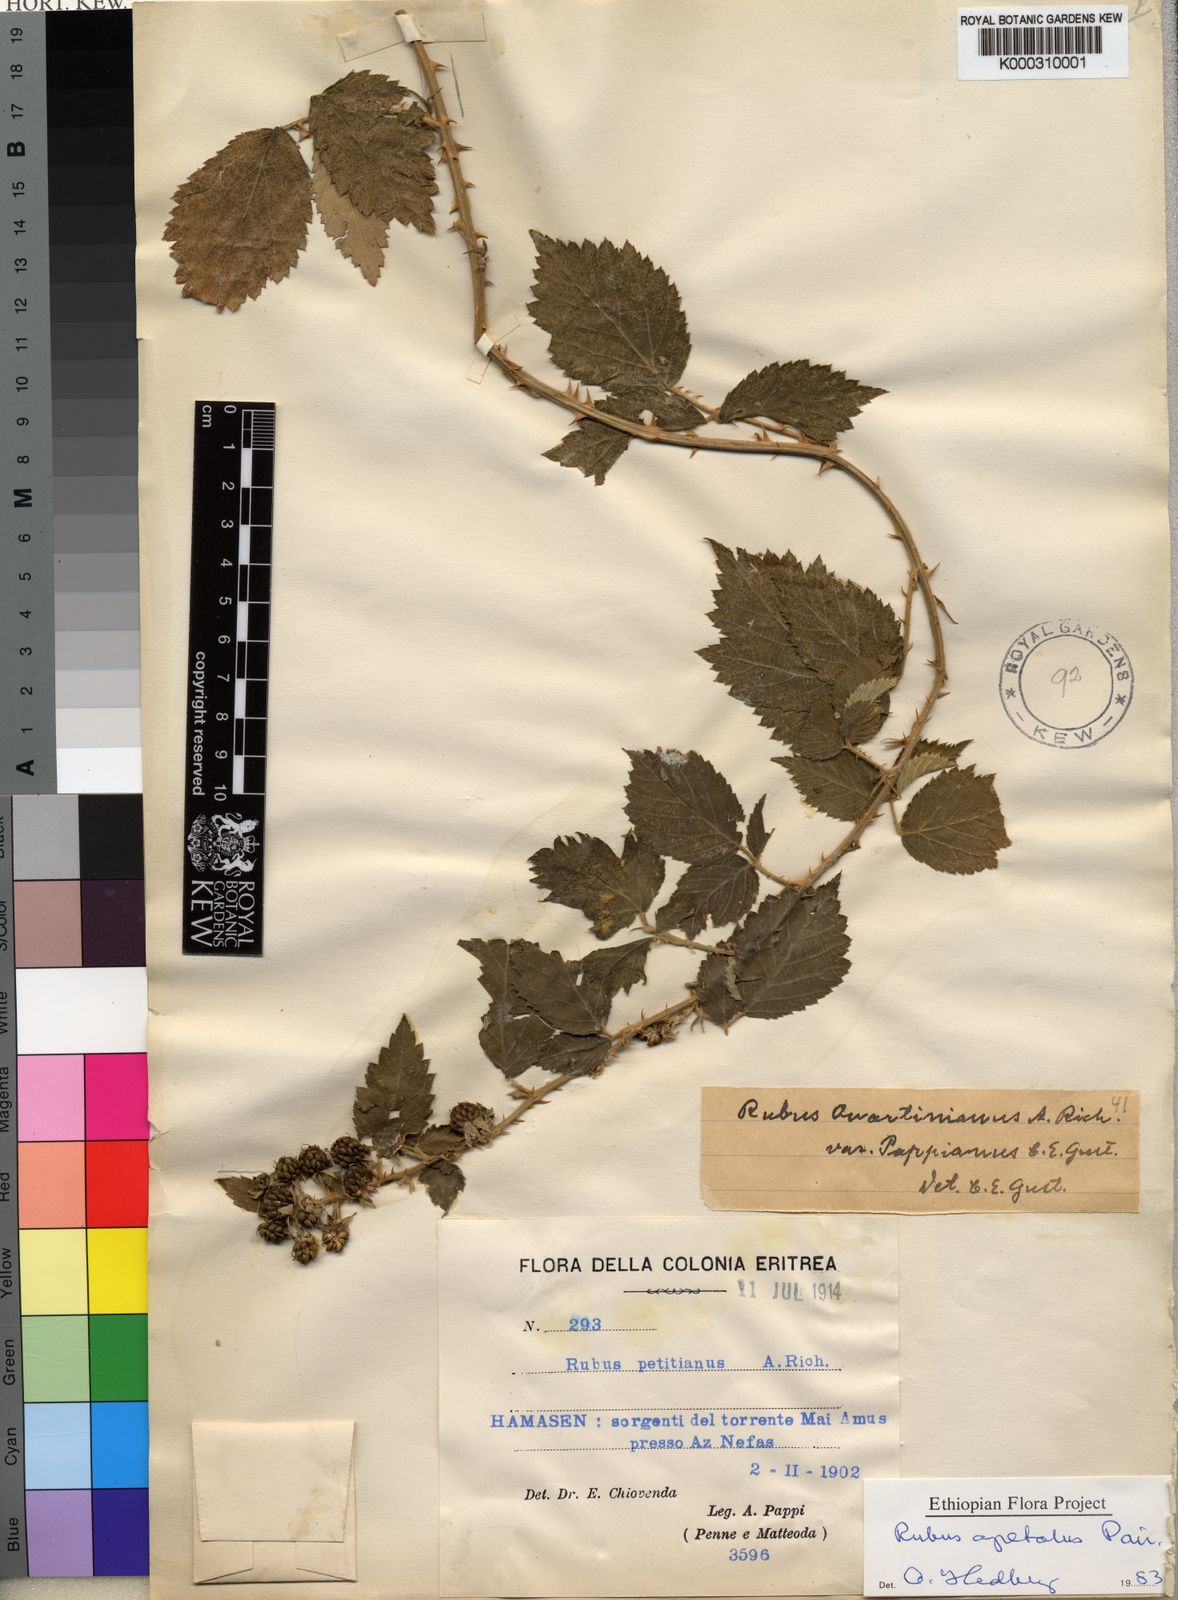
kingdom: Plantae
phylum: Tracheophyta
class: Magnoliopsida
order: Rosales
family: Rosaceae
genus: Rubus
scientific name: Rubus apetalus
